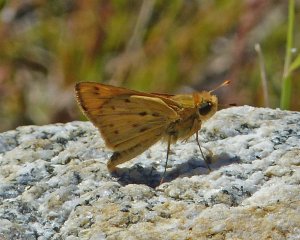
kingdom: Animalia
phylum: Arthropoda
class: Insecta
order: Lepidoptera
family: Hesperiidae
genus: Hylephila
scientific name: Hylephila phyleus
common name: Fiery Skipper
